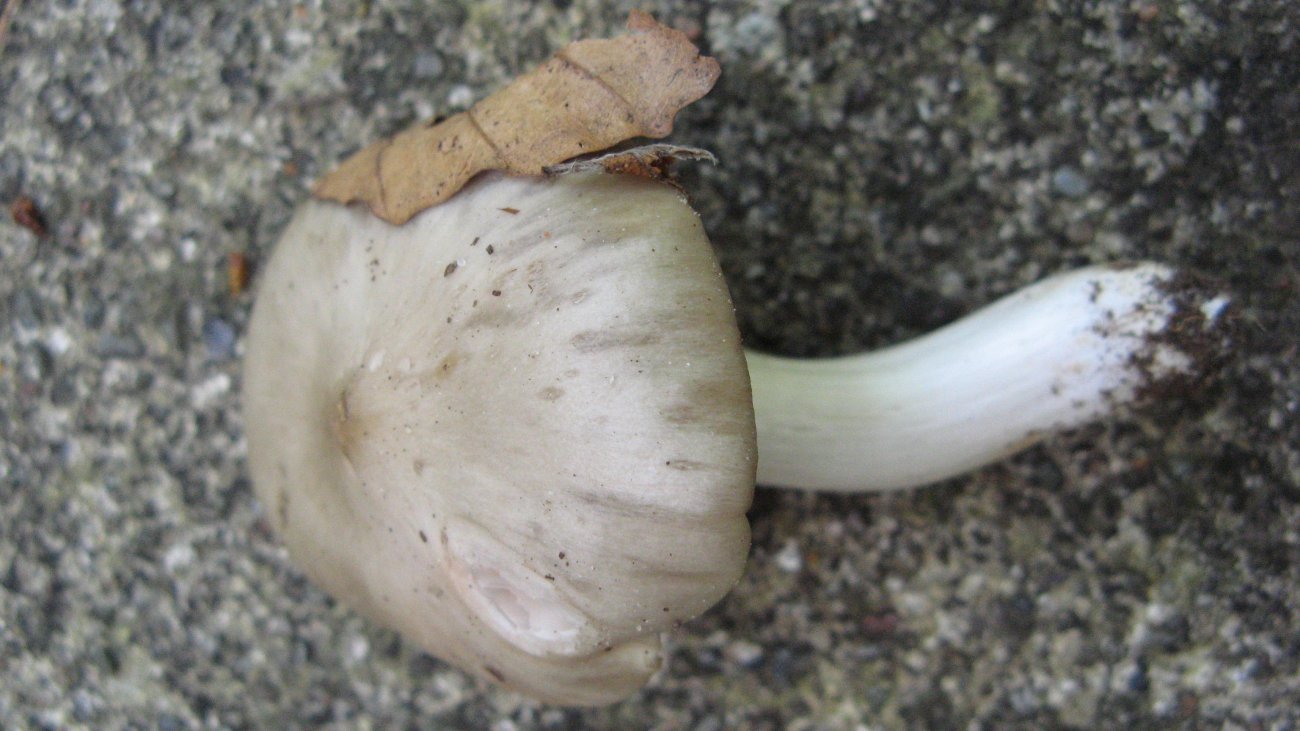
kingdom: Fungi
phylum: Basidiomycota
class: Agaricomycetes
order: Agaricales
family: Entolomataceae
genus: Entoloma
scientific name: Entoloma rhodopolium
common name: skov-rødblad
